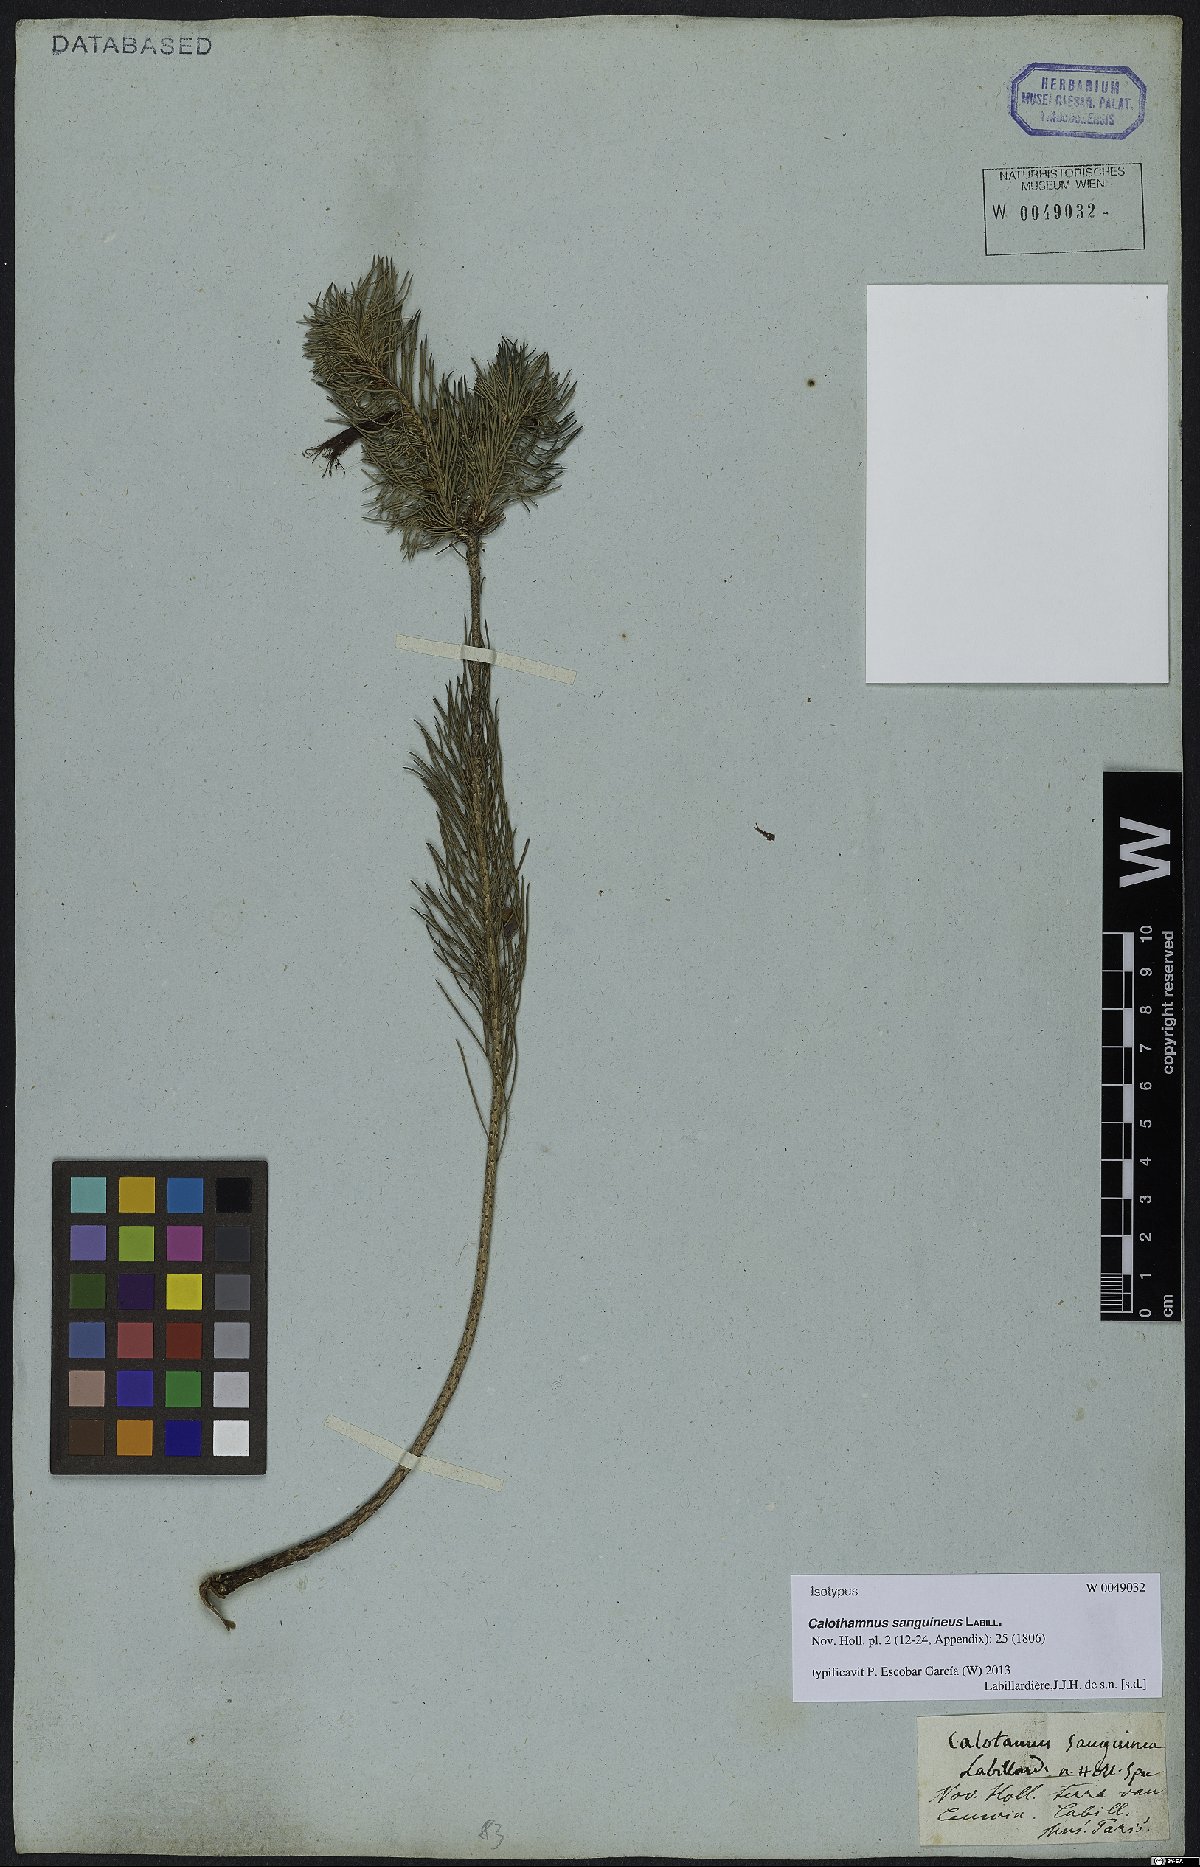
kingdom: Plantae
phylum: Tracheophyta
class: Magnoliopsida
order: Myrtales
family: Myrtaceae
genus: Melaleuca
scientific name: Melaleuca cruenta
